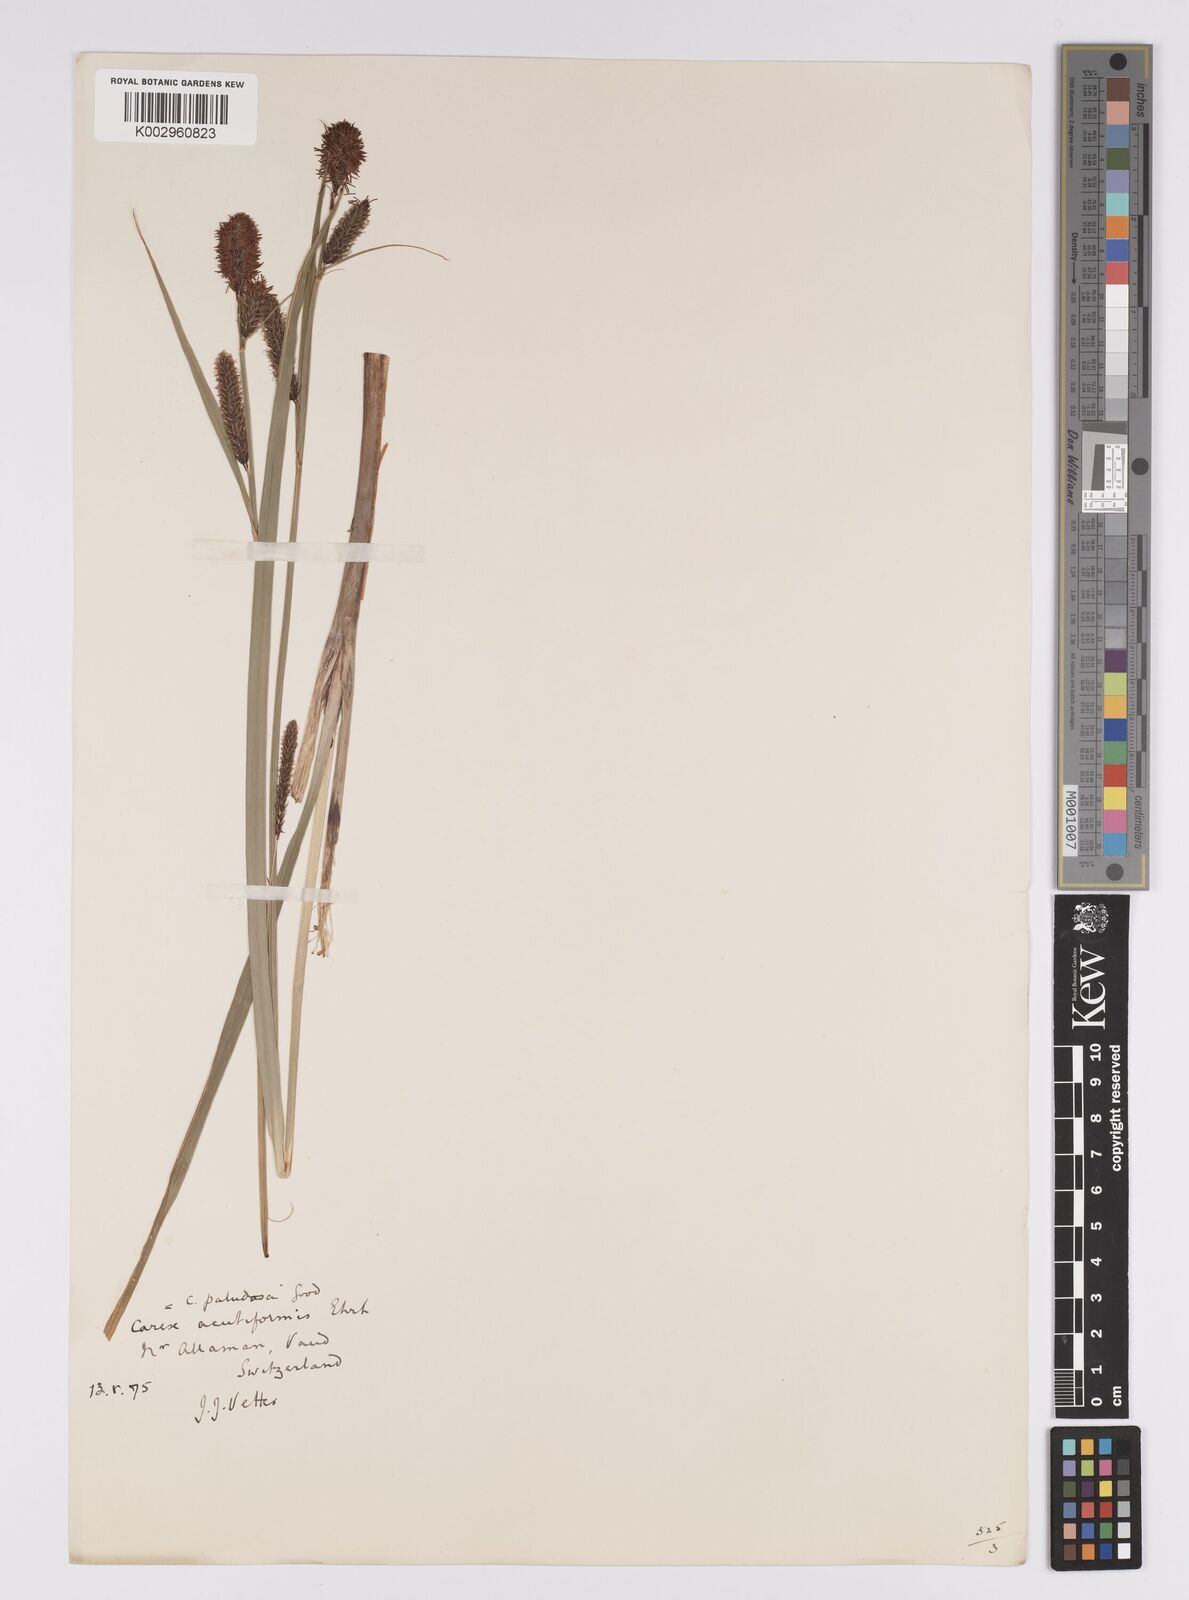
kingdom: Plantae
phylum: Tracheophyta
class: Liliopsida
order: Poales
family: Cyperaceae
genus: Carex
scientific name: Carex acutiformis
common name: Lesser pond-sedge
